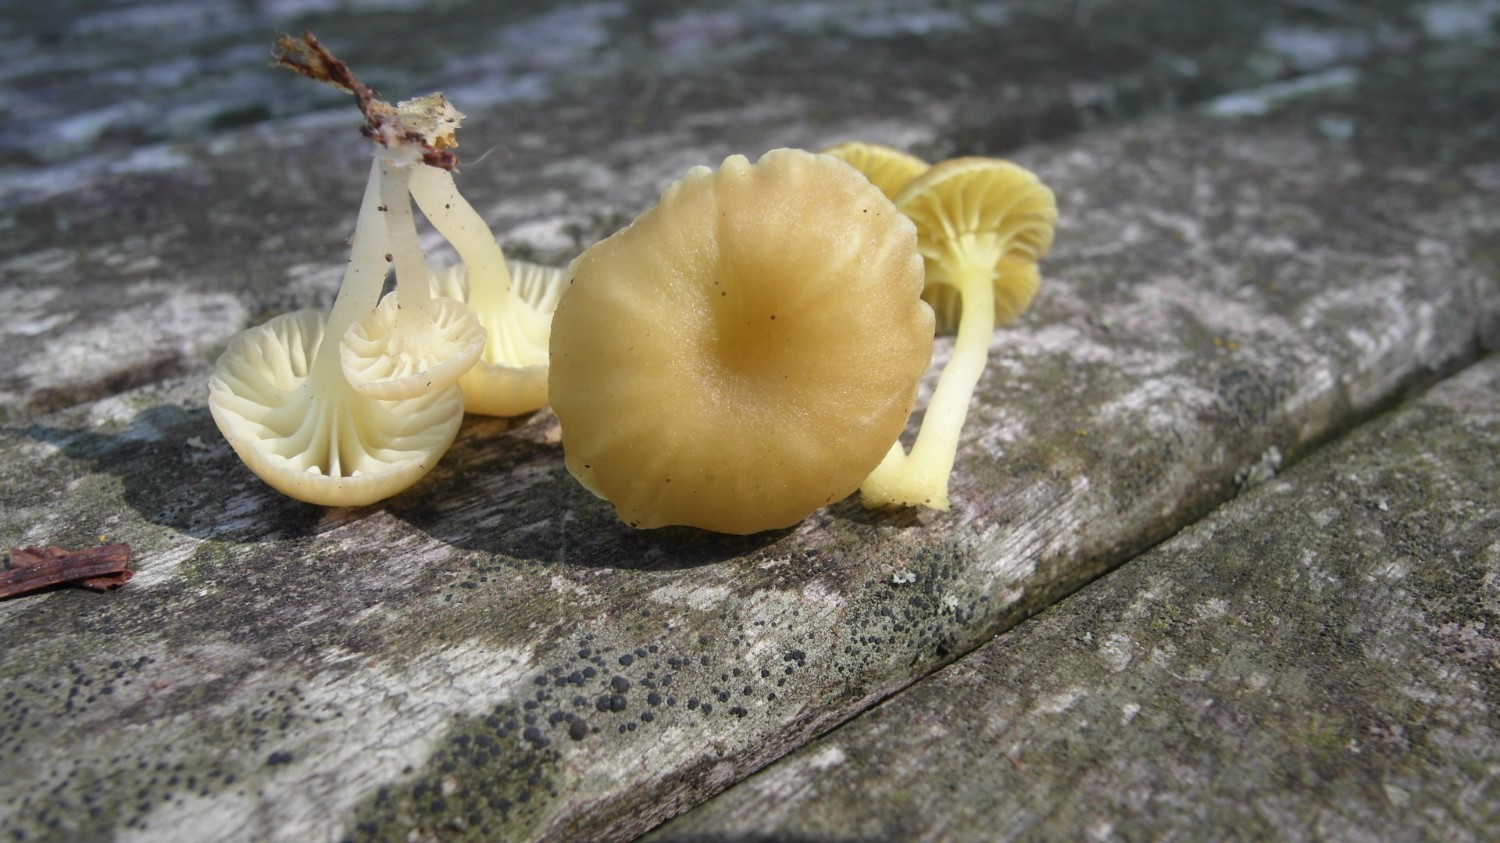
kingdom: Fungi
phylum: Basidiomycota
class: Agaricomycetes
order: Agaricales
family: Hygrophoraceae
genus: Chrysomphalina
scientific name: Chrysomphalina grossula
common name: stød-gyldenblad
